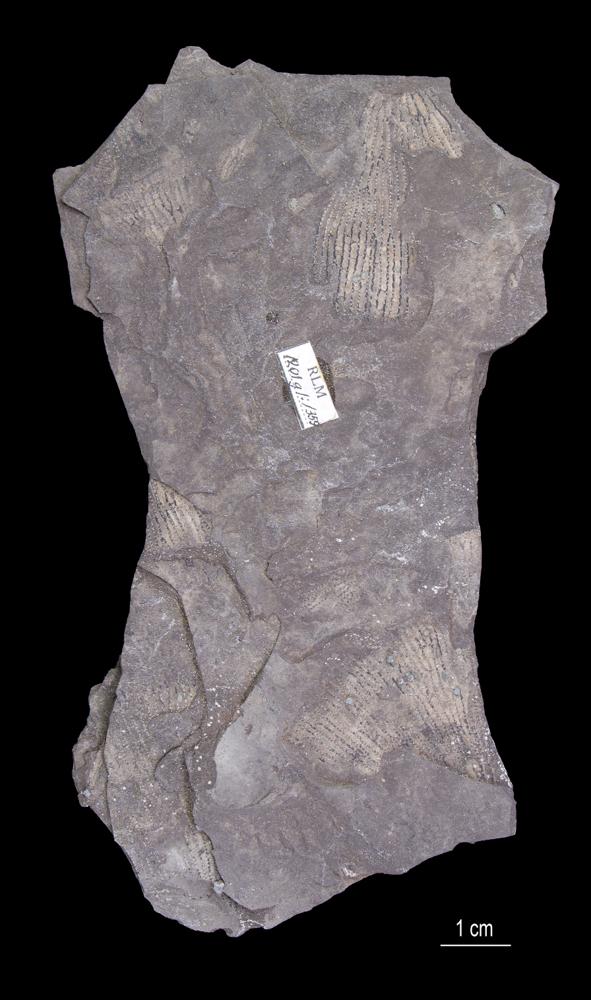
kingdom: Animalia
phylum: Hemichordata
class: Pterobranchia
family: Anisograptidae
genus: Rhabdinopora
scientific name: Rhabdinopora Gorgonia flabelliformis
